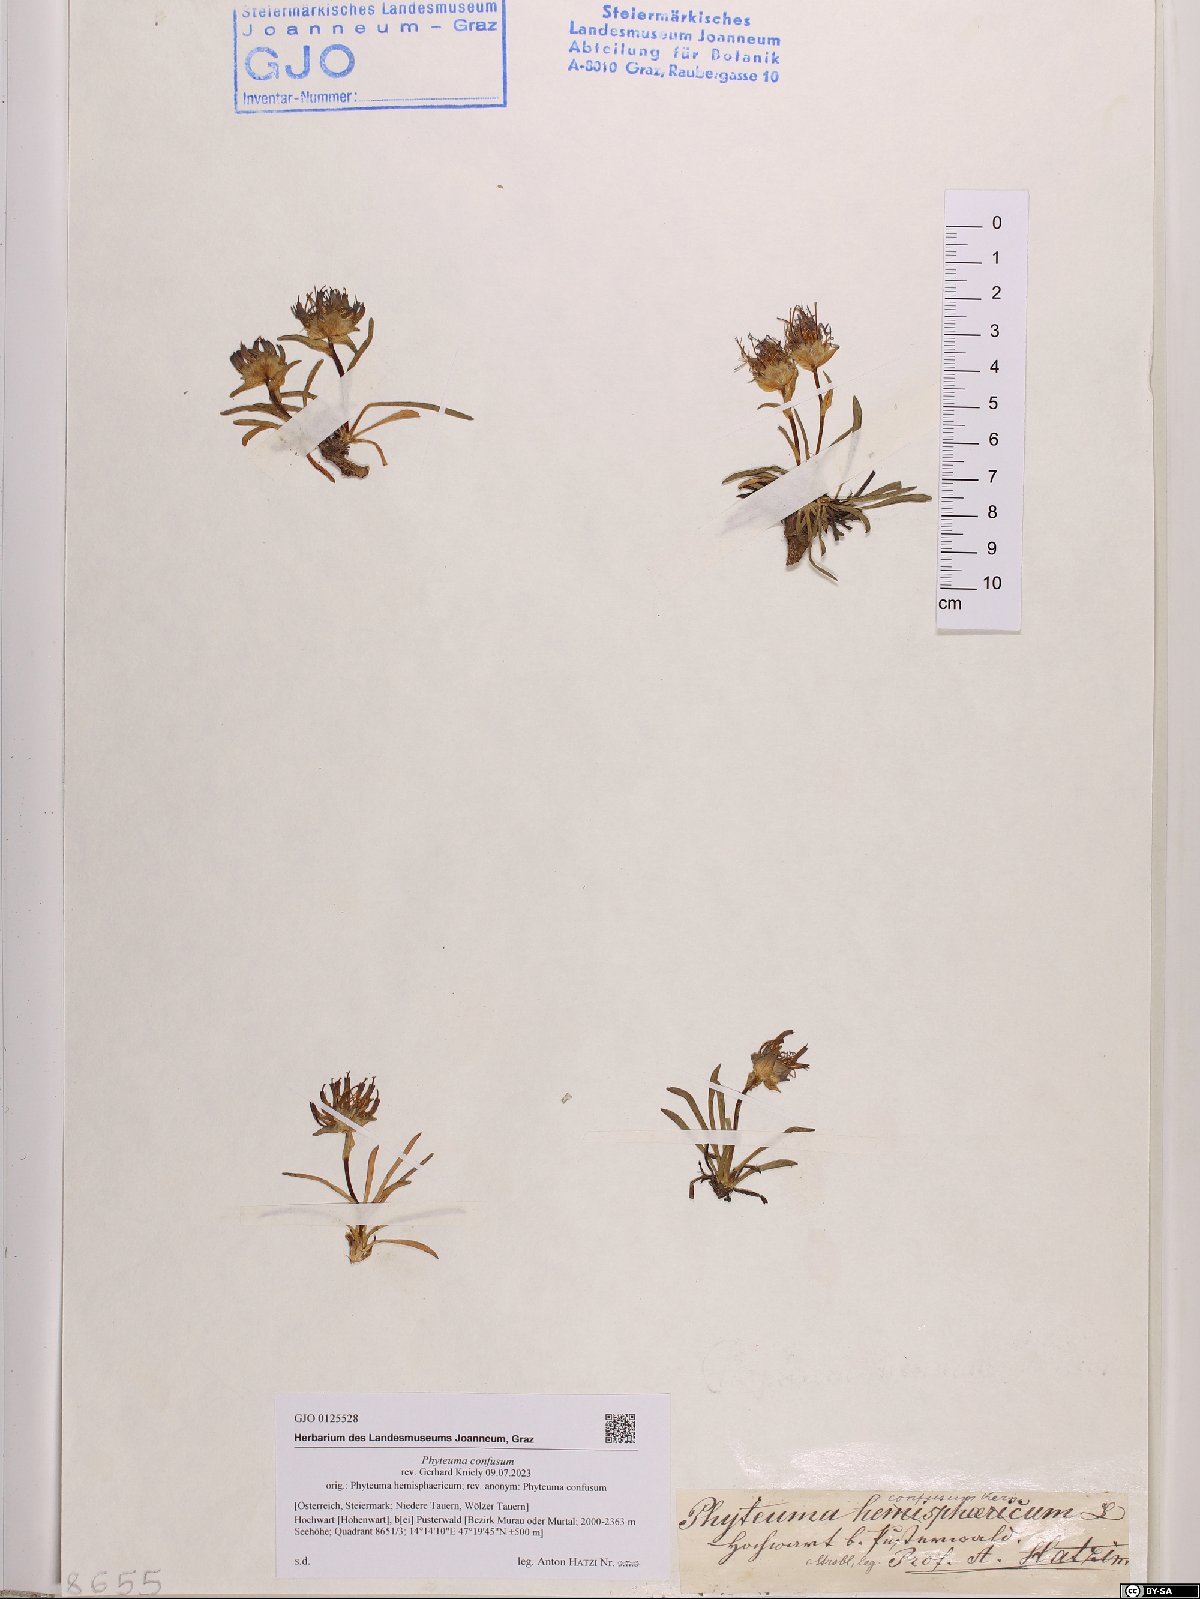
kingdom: Plantae
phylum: Tracheophyta
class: Magnoliopsida
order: Asterales
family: Campanulaceae
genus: Phyteuma
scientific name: Phyteuma confusum
